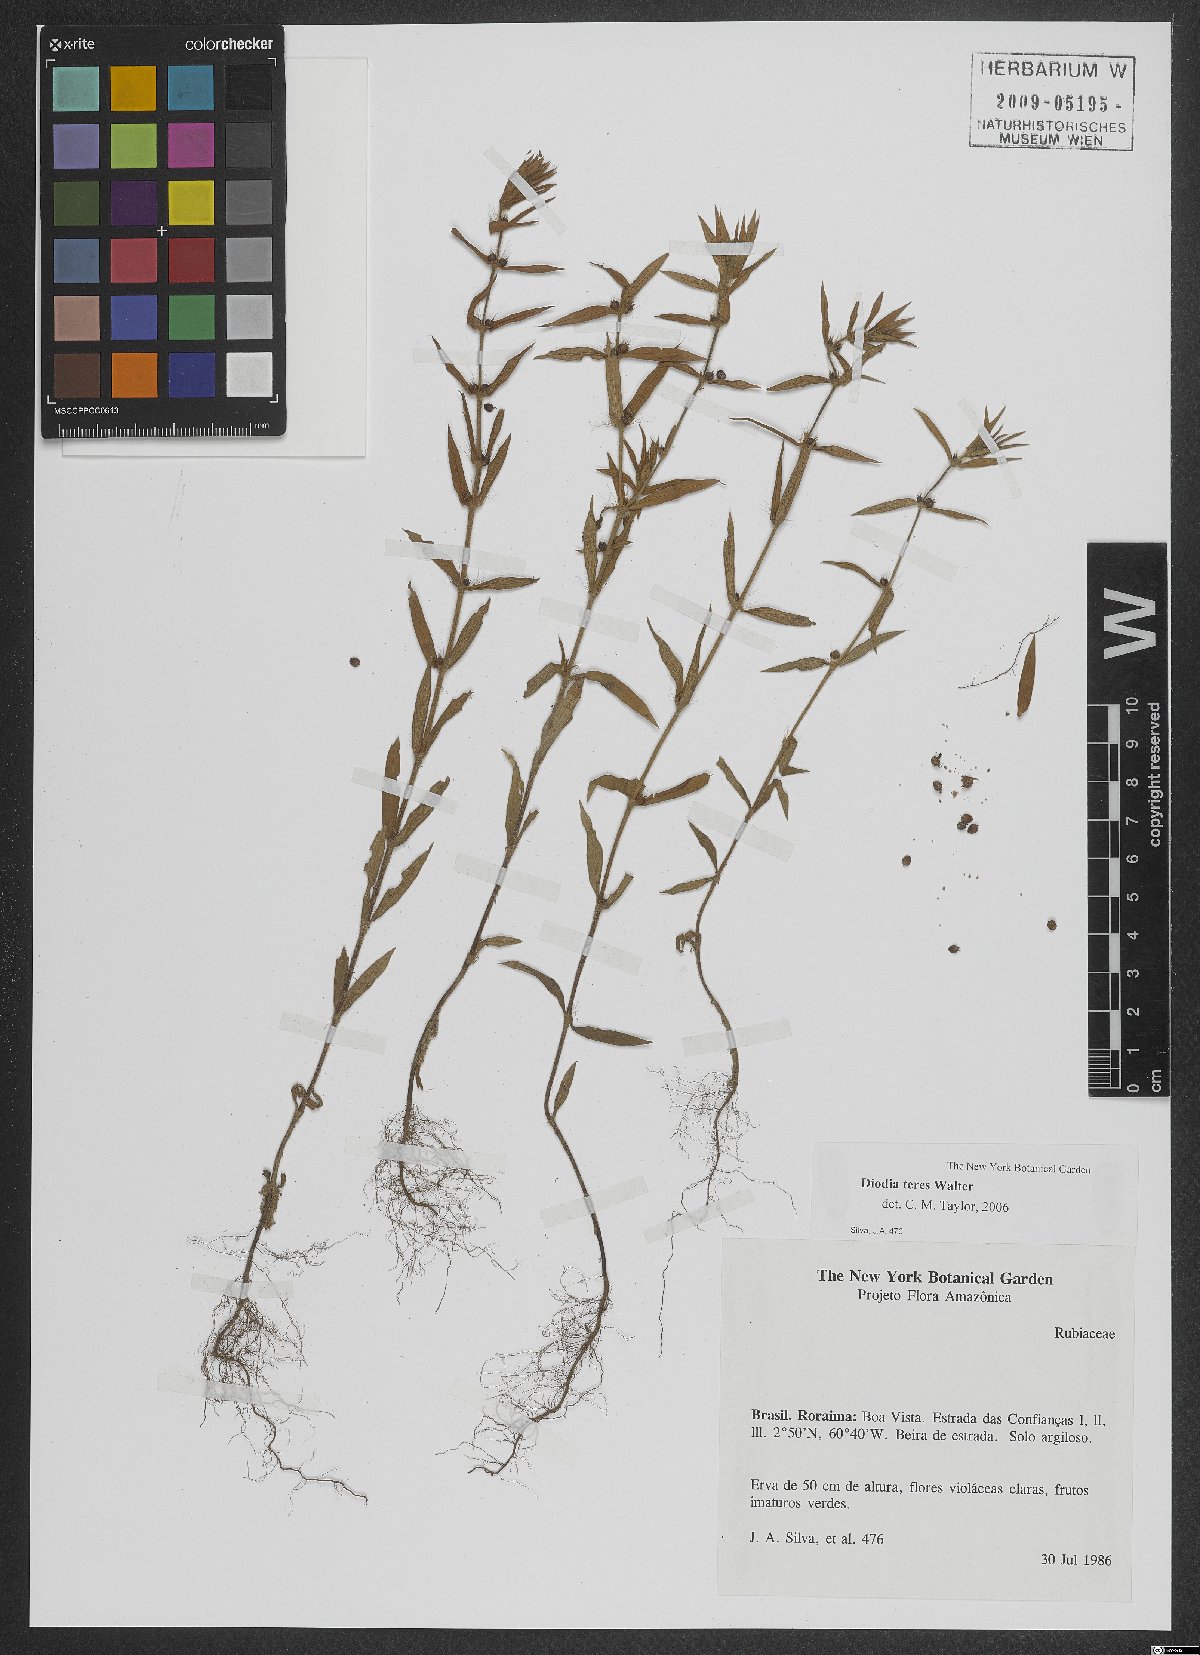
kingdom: Plantae
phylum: Tracheophyta
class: Magnoliopsida
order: Gentianales
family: Rubiaceae
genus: Hexasepalum
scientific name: Hexasepalum teres
